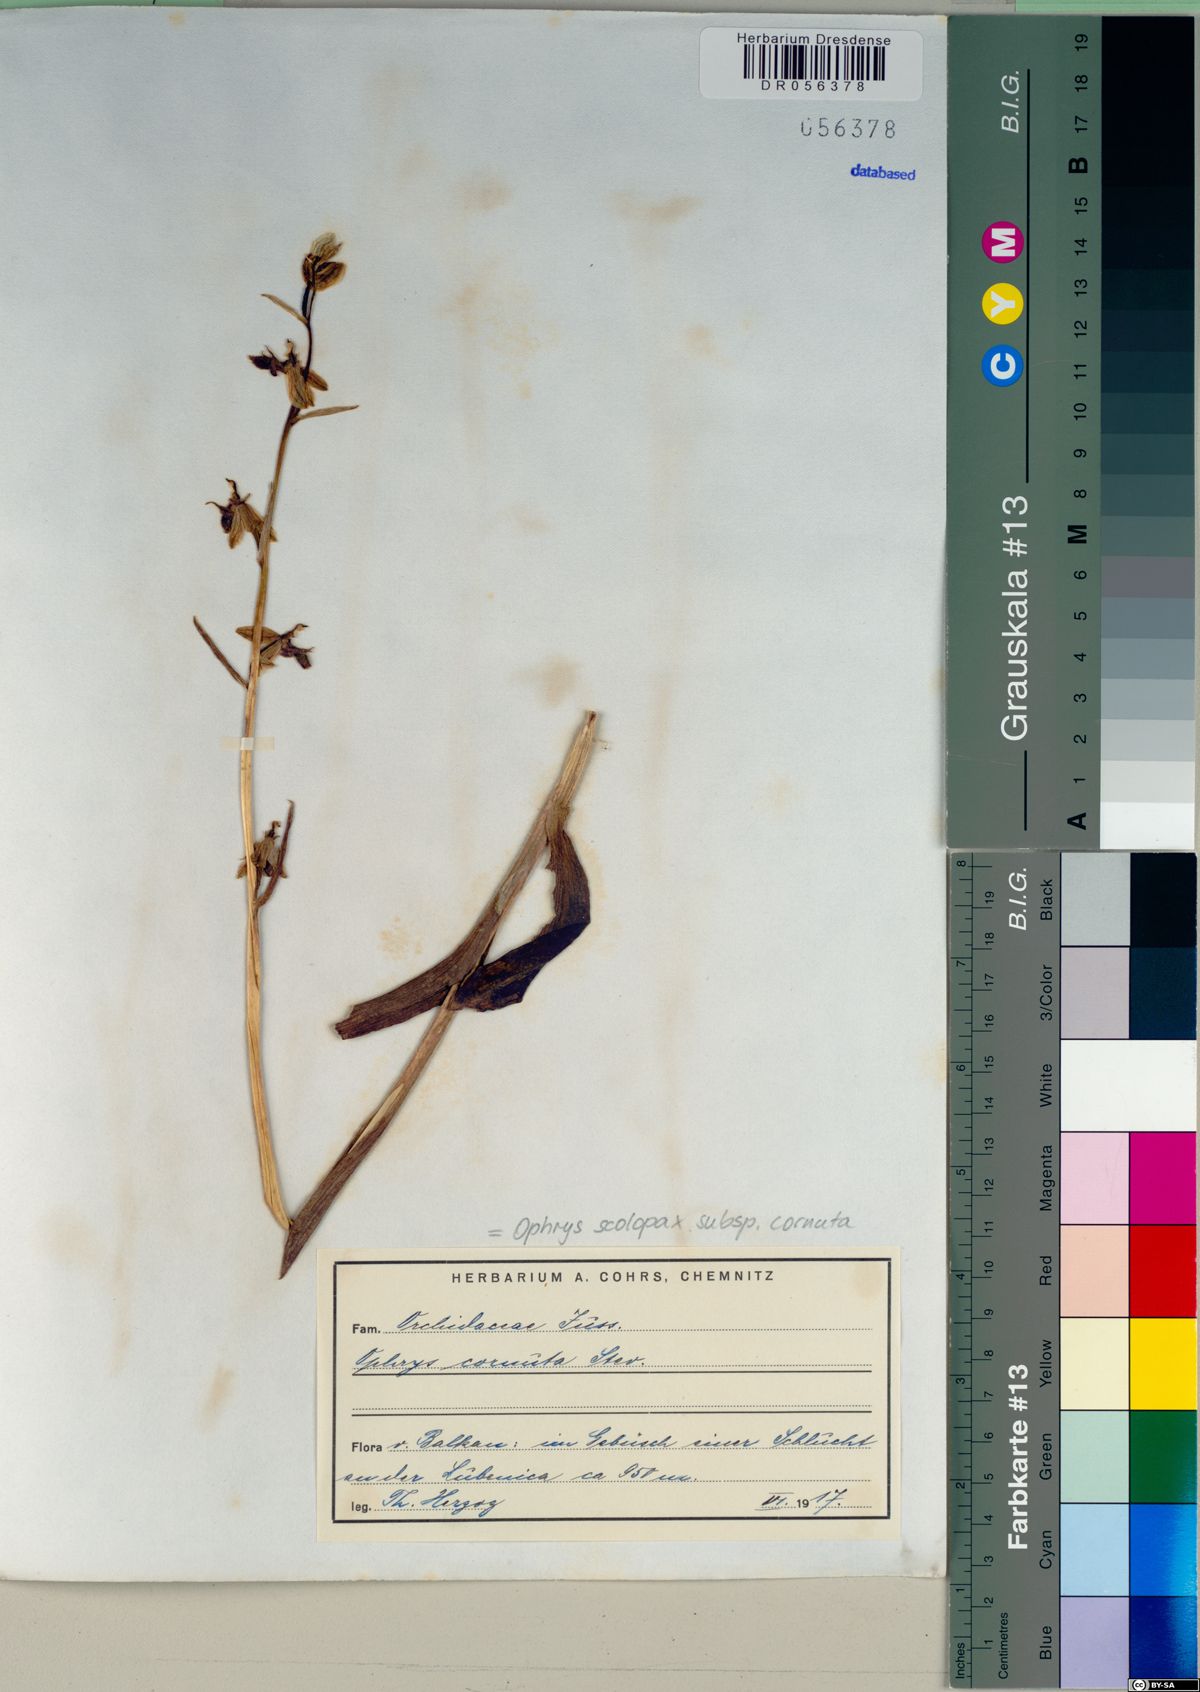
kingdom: Plantae
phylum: Tracheophyta
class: Liliopsida
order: Asparagales
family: Orchidaceae
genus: Ophrys
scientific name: Ophrys scolopax
